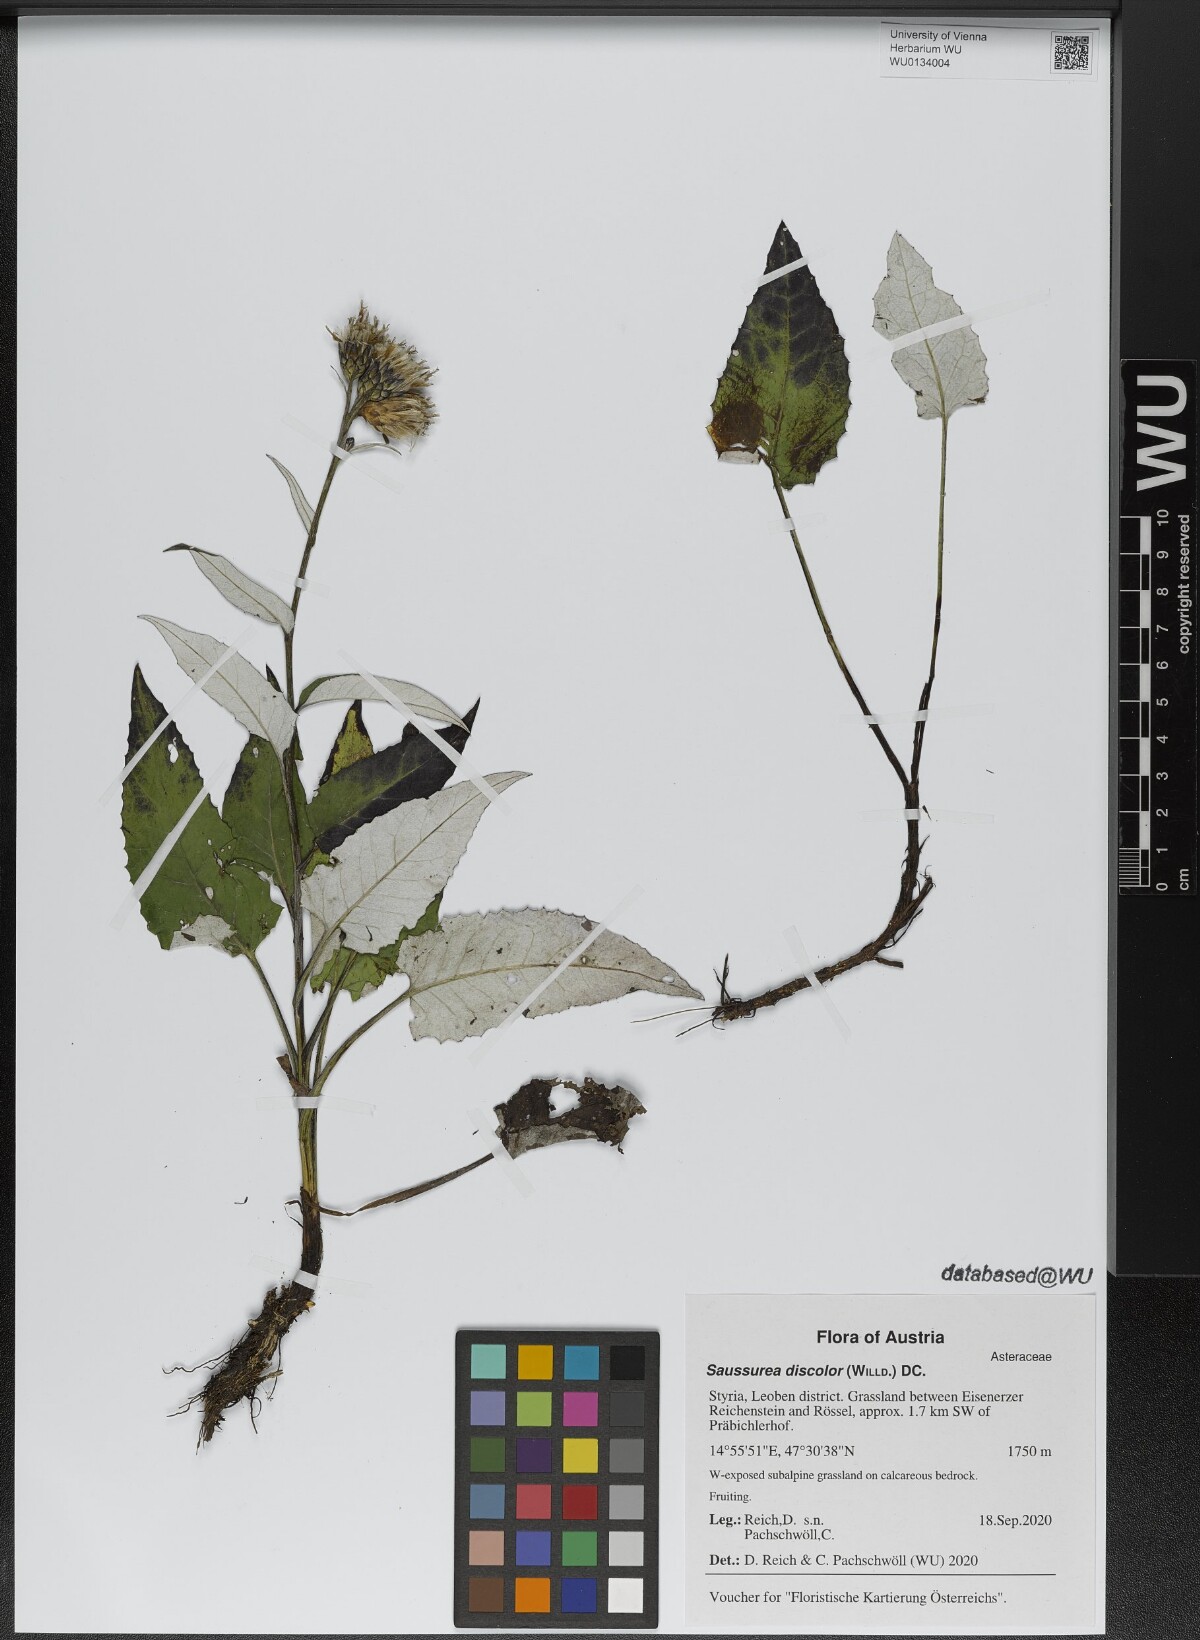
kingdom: Plantae
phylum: Tracheophyta
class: Magnoliopsida
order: Asterales
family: Asteraceae
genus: Saussurea
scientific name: Saussurea discolor
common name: Heart-leaved saussurea
